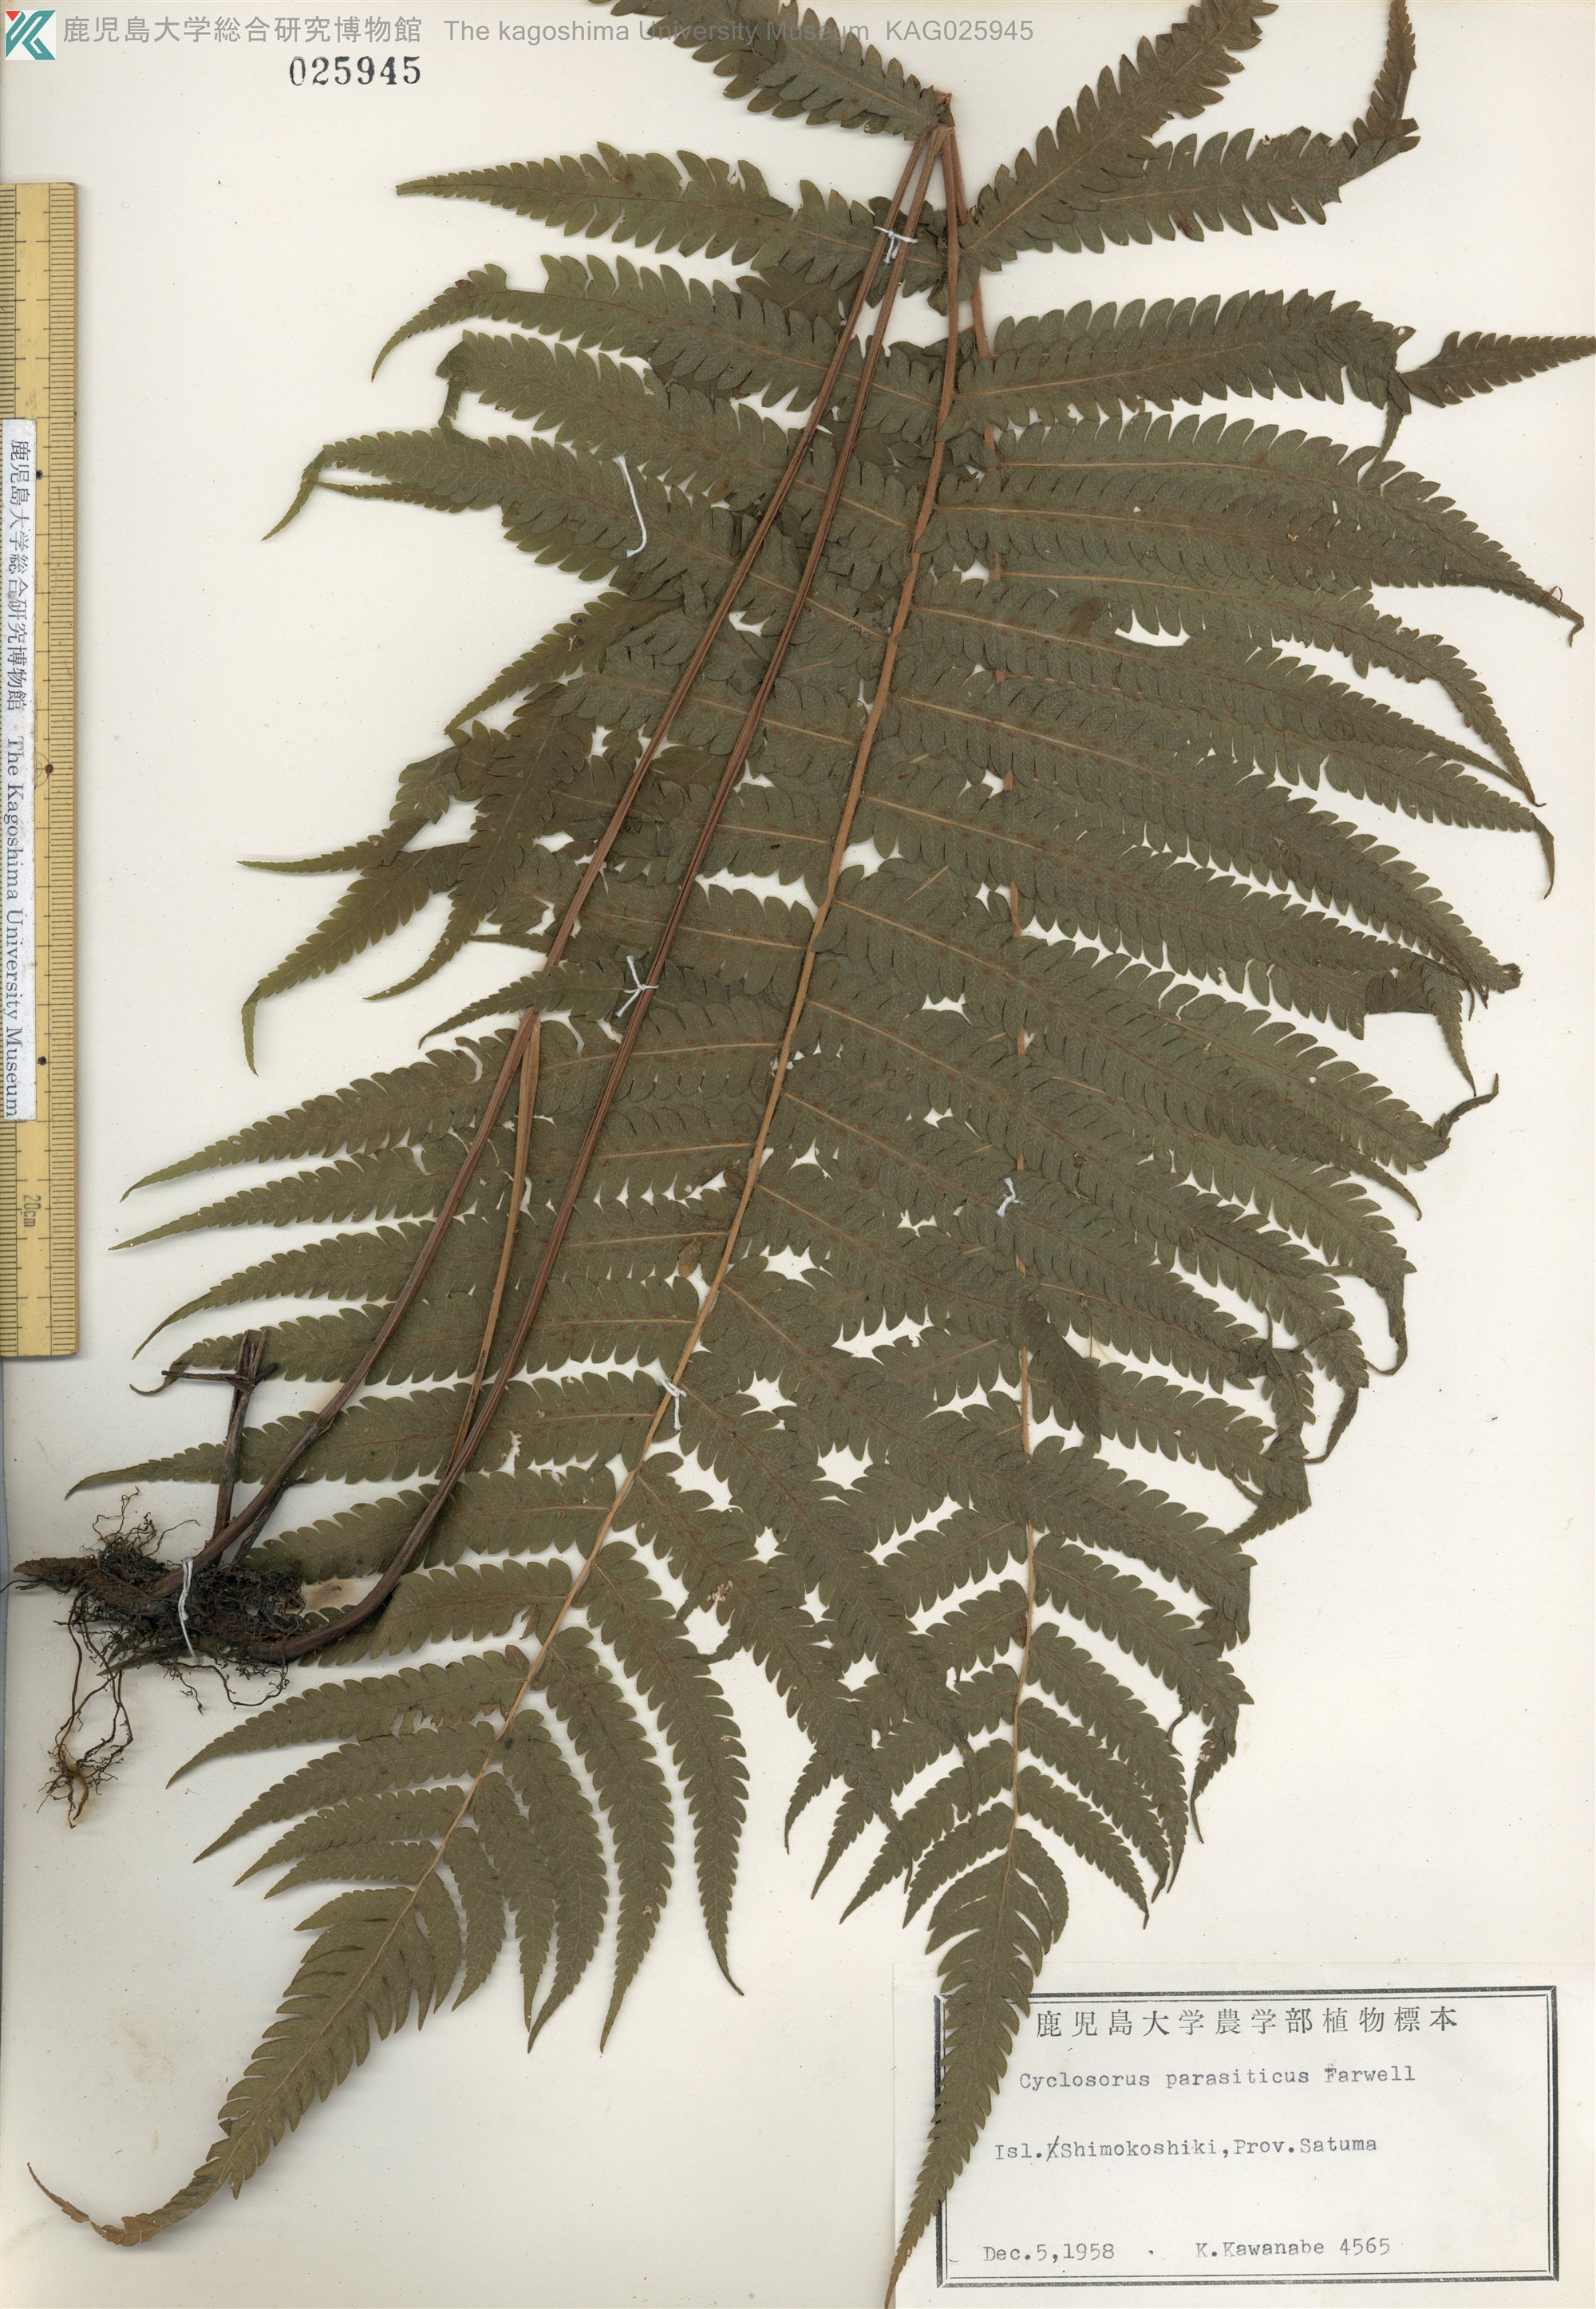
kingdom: Plantae
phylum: Tracheophyta
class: Polypodiopsida
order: Polypodiales
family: Thelypteridaceae
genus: Christella
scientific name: Christella parasitica
